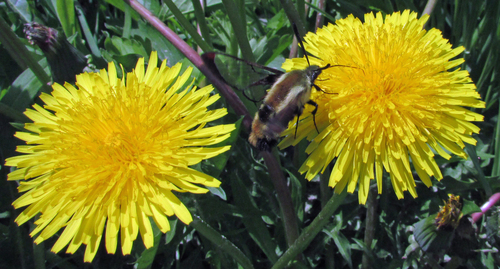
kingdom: Animalia
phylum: Arthropoda
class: Insecta
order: Lepidoptera
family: Sphingidae
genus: Hemaris
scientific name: Hemaris diffinis
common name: Bumblebee moth
